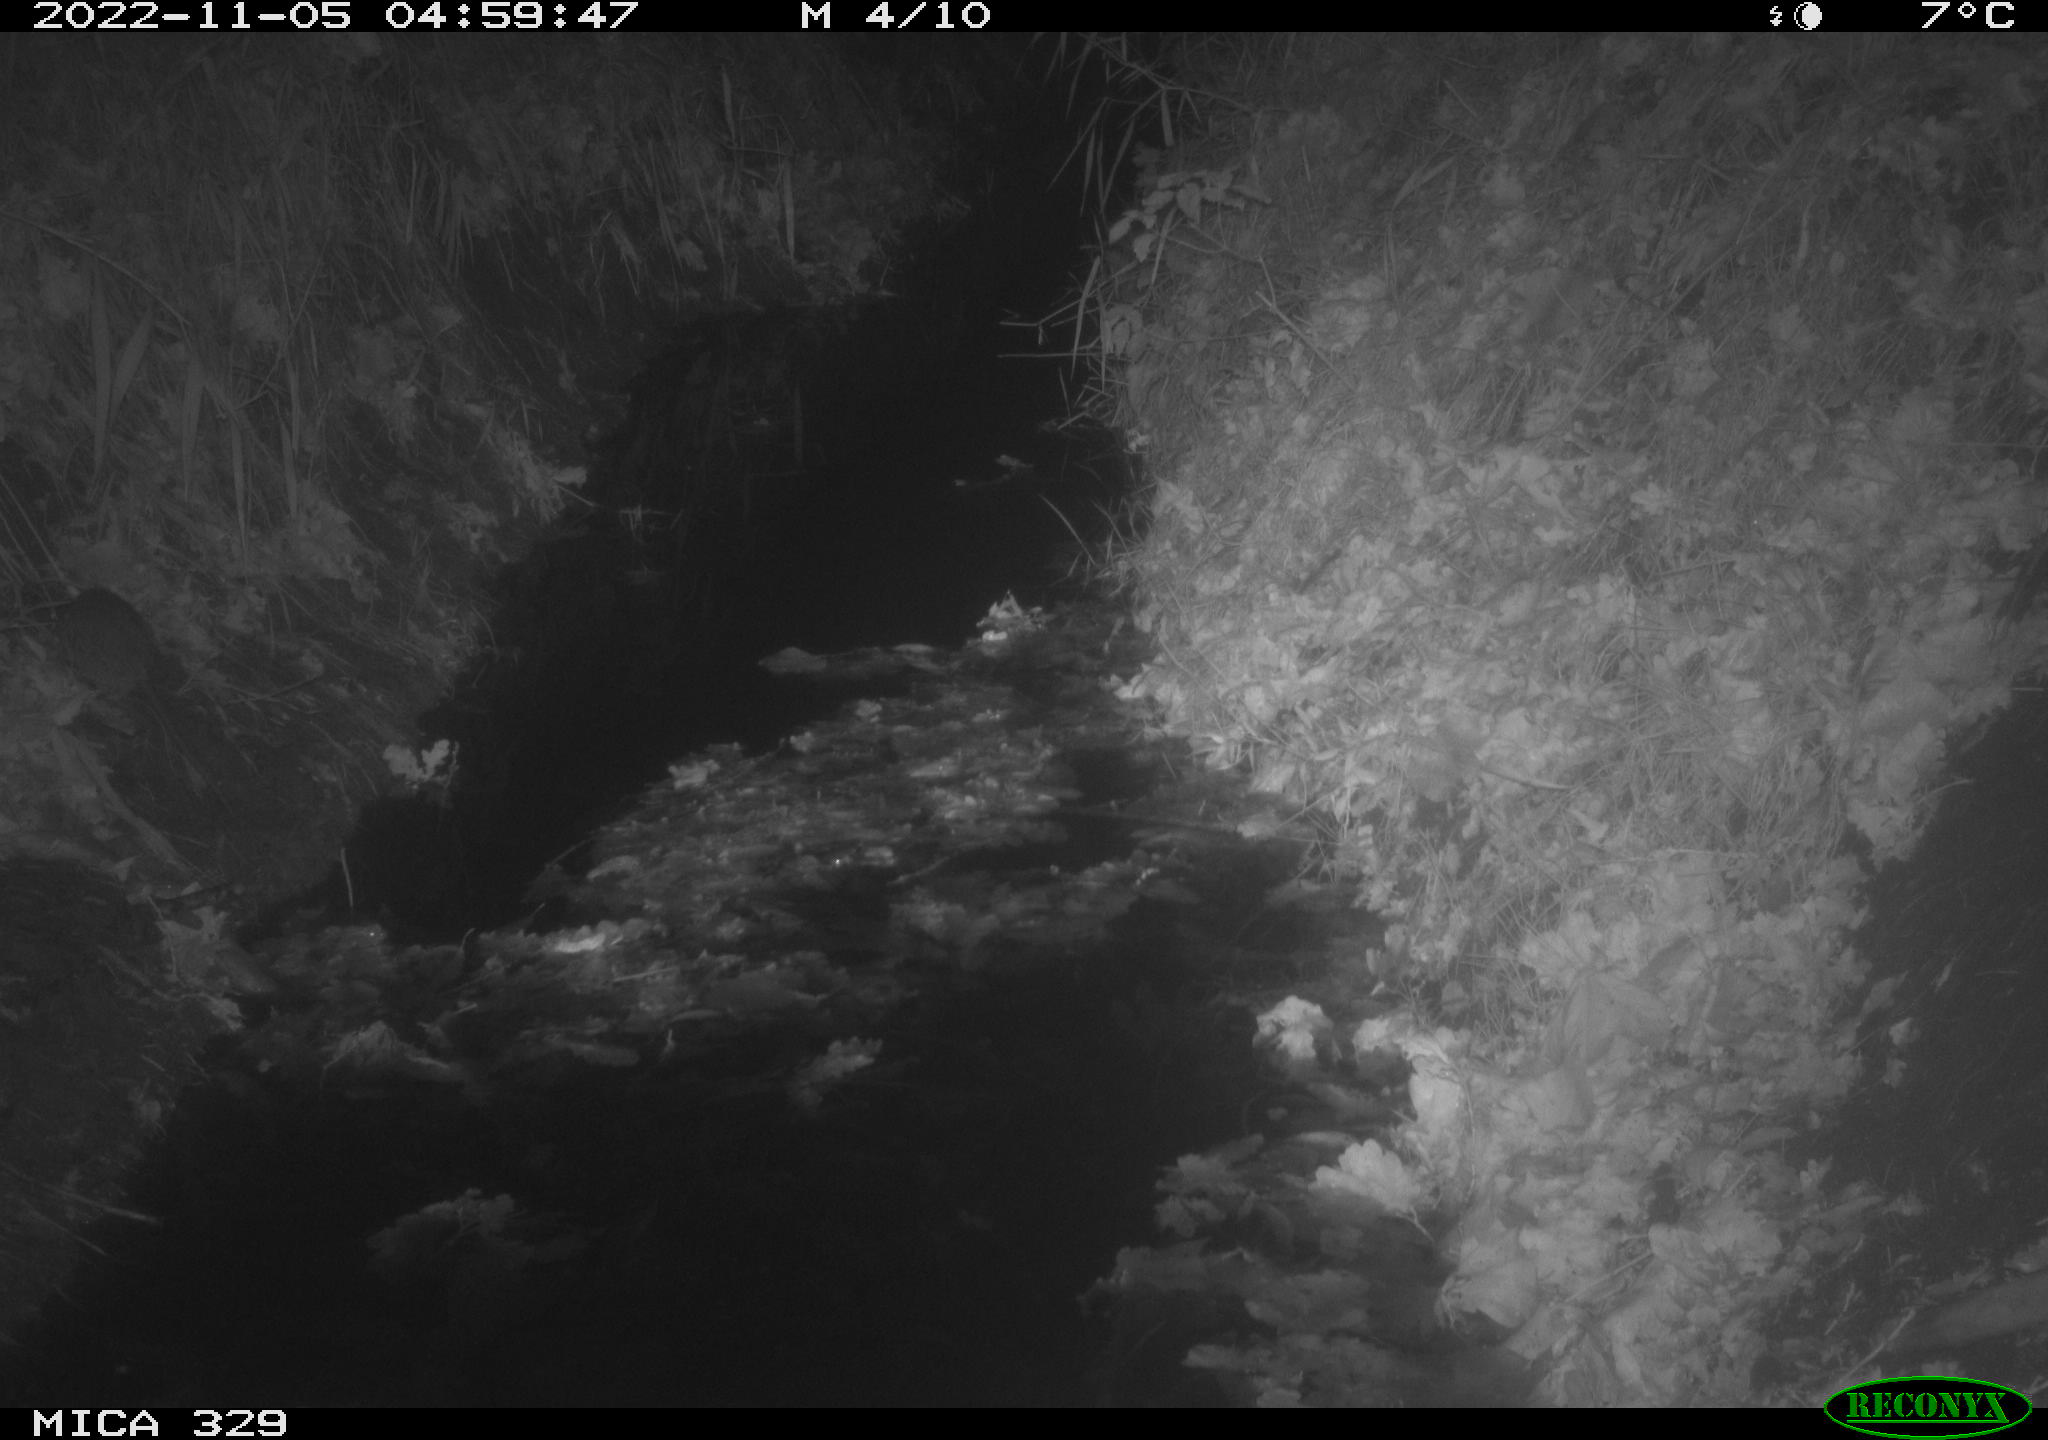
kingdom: Animalia
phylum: Chordata
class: Mammalia
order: Rodentia
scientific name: Rodentia
